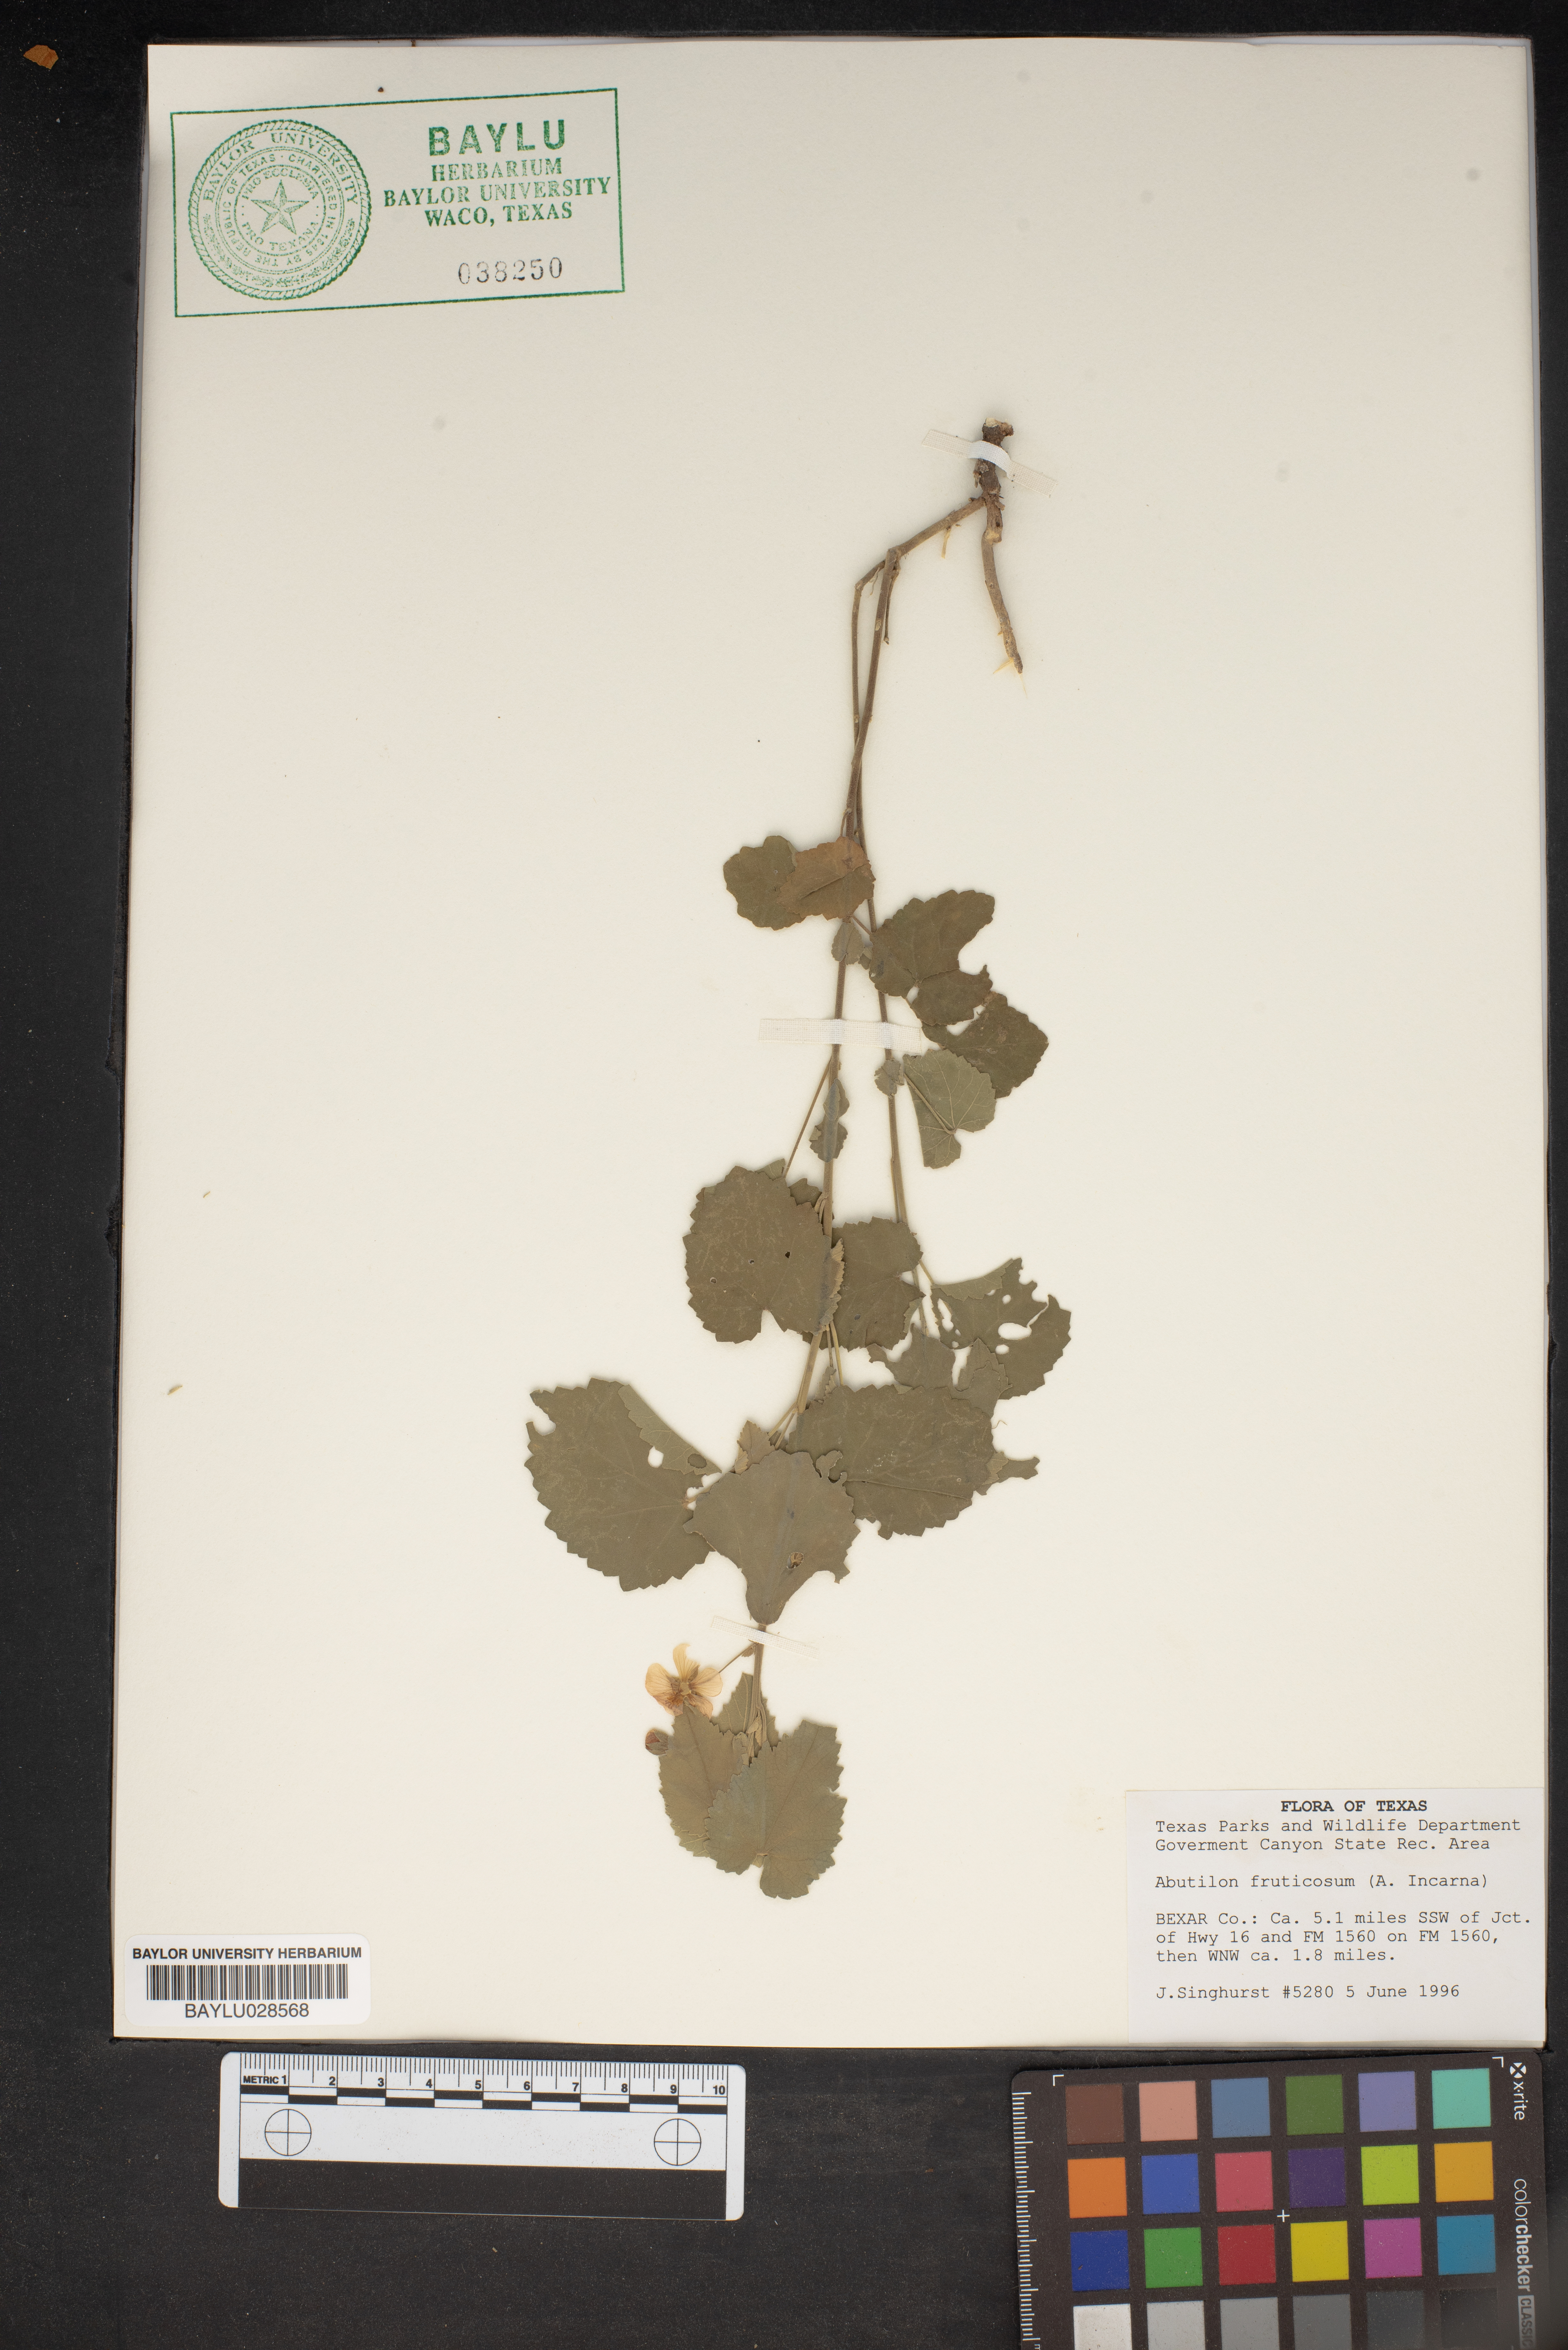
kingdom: Plantae
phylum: Tracheophyta
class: Magnoliopsida
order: Malvales
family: Malvaceae
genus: Abutilon
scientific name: Abutilon fruticosum
